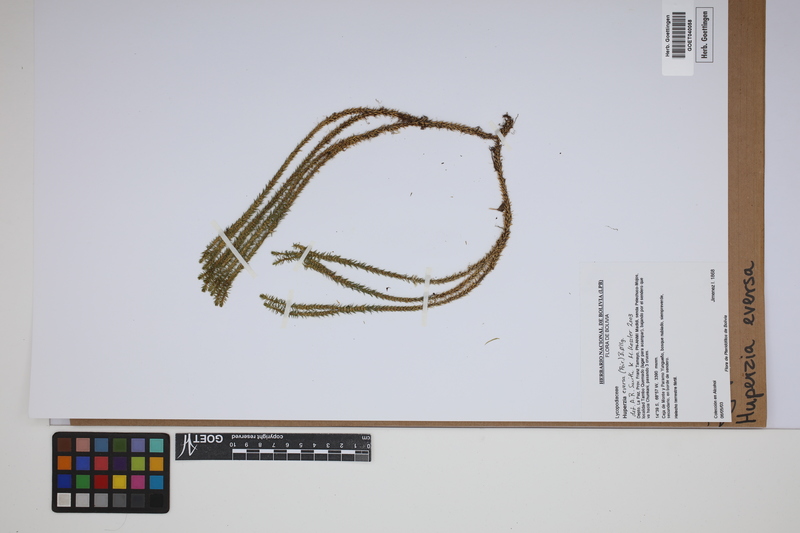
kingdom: Plantae
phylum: Tracheophyta
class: Lycopodiopsida
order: Lycopodiales
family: Lycopodiaceae
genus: Phlegmariurus
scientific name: Phlegmariurus eversus
